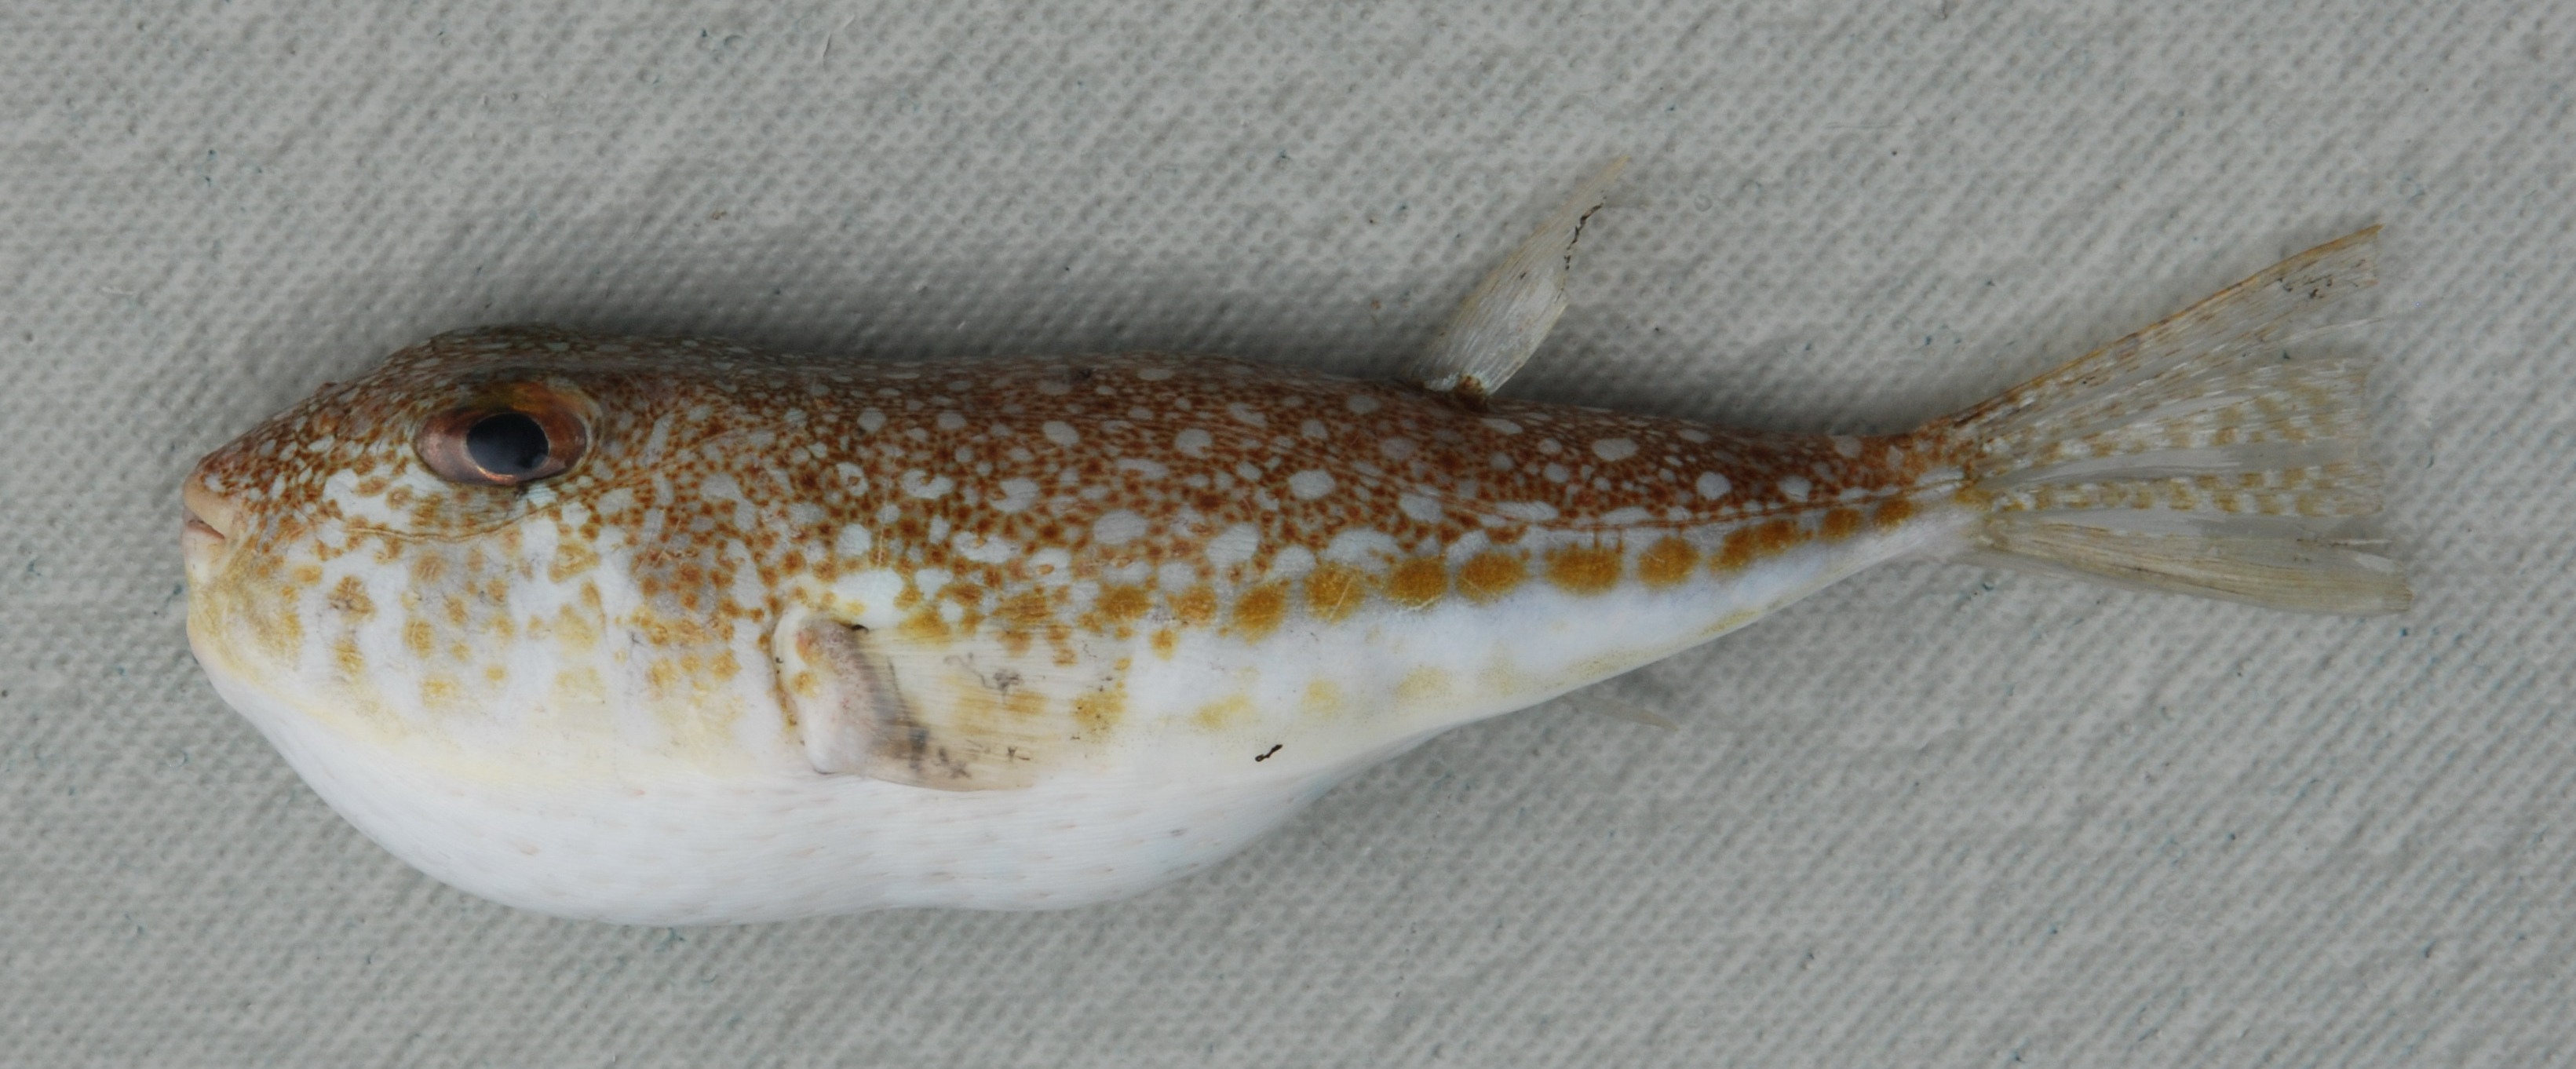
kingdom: Animalia
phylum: Chordata
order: Tetraodontiformes
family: Tetraodontidae
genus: Torquigener
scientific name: Torquigener flavimaculosus
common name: Studded pufferfish
